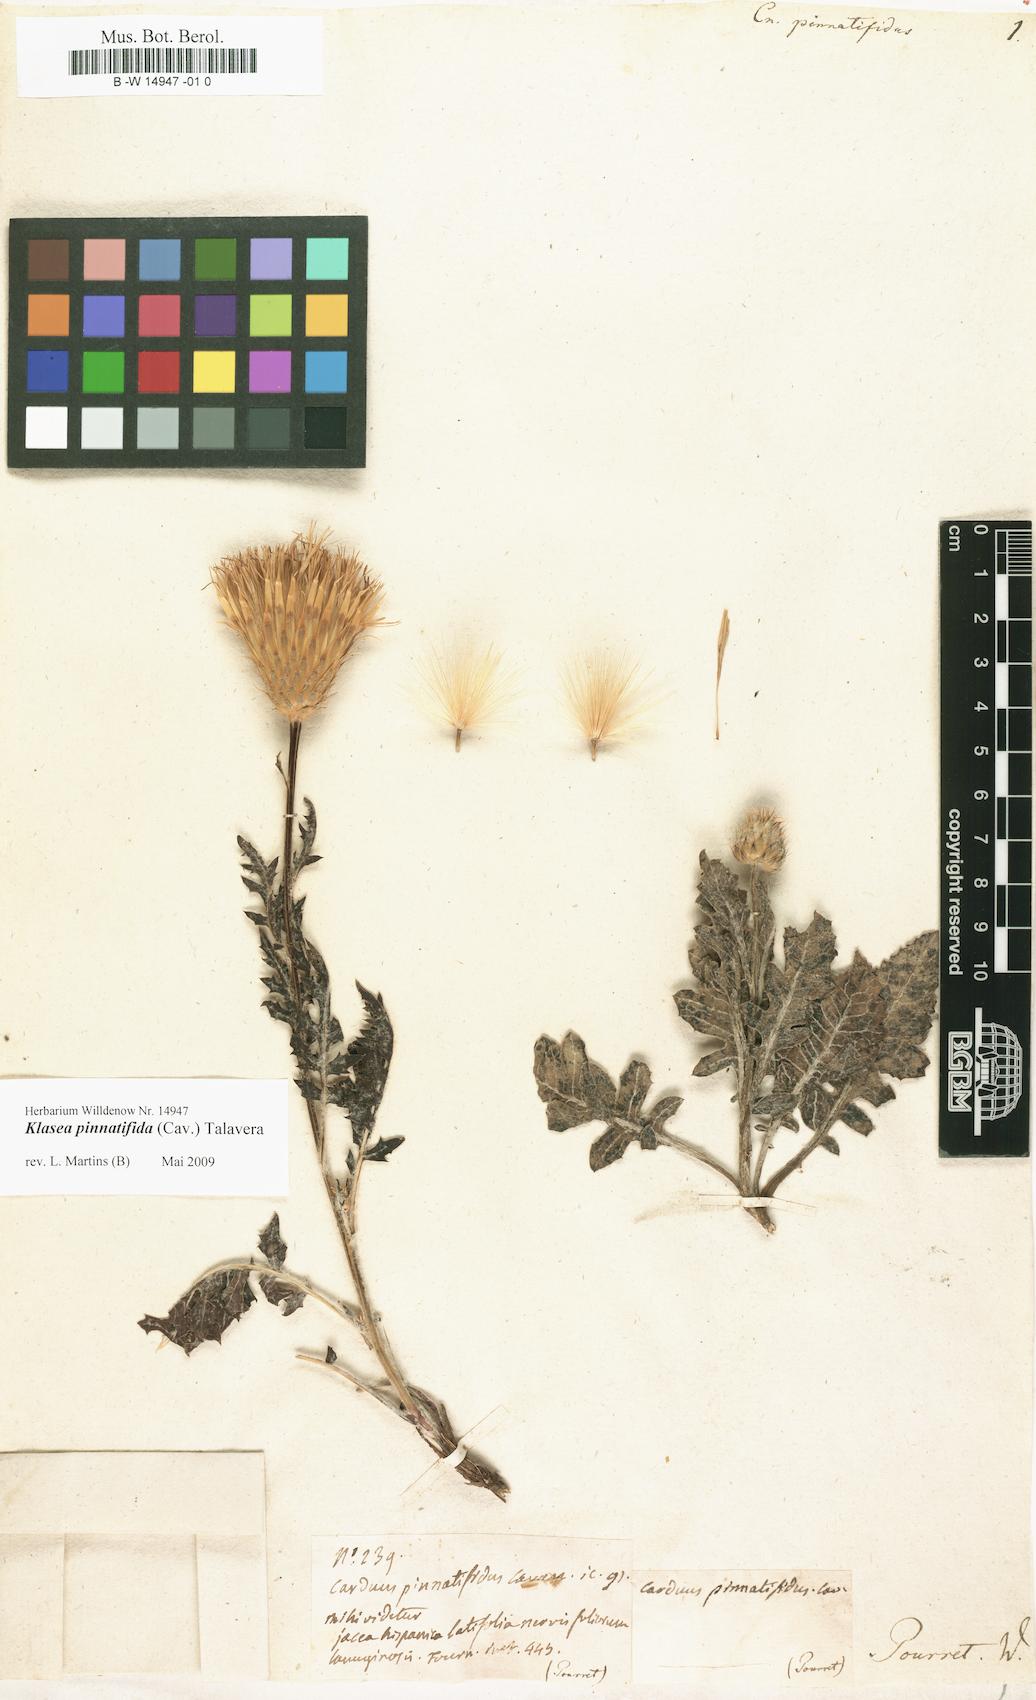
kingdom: Plantae
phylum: Tracheophyta
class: Magnoliopsida
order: Asterales
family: Asteraceae
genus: Klasea
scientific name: Klasea pinnatifida
